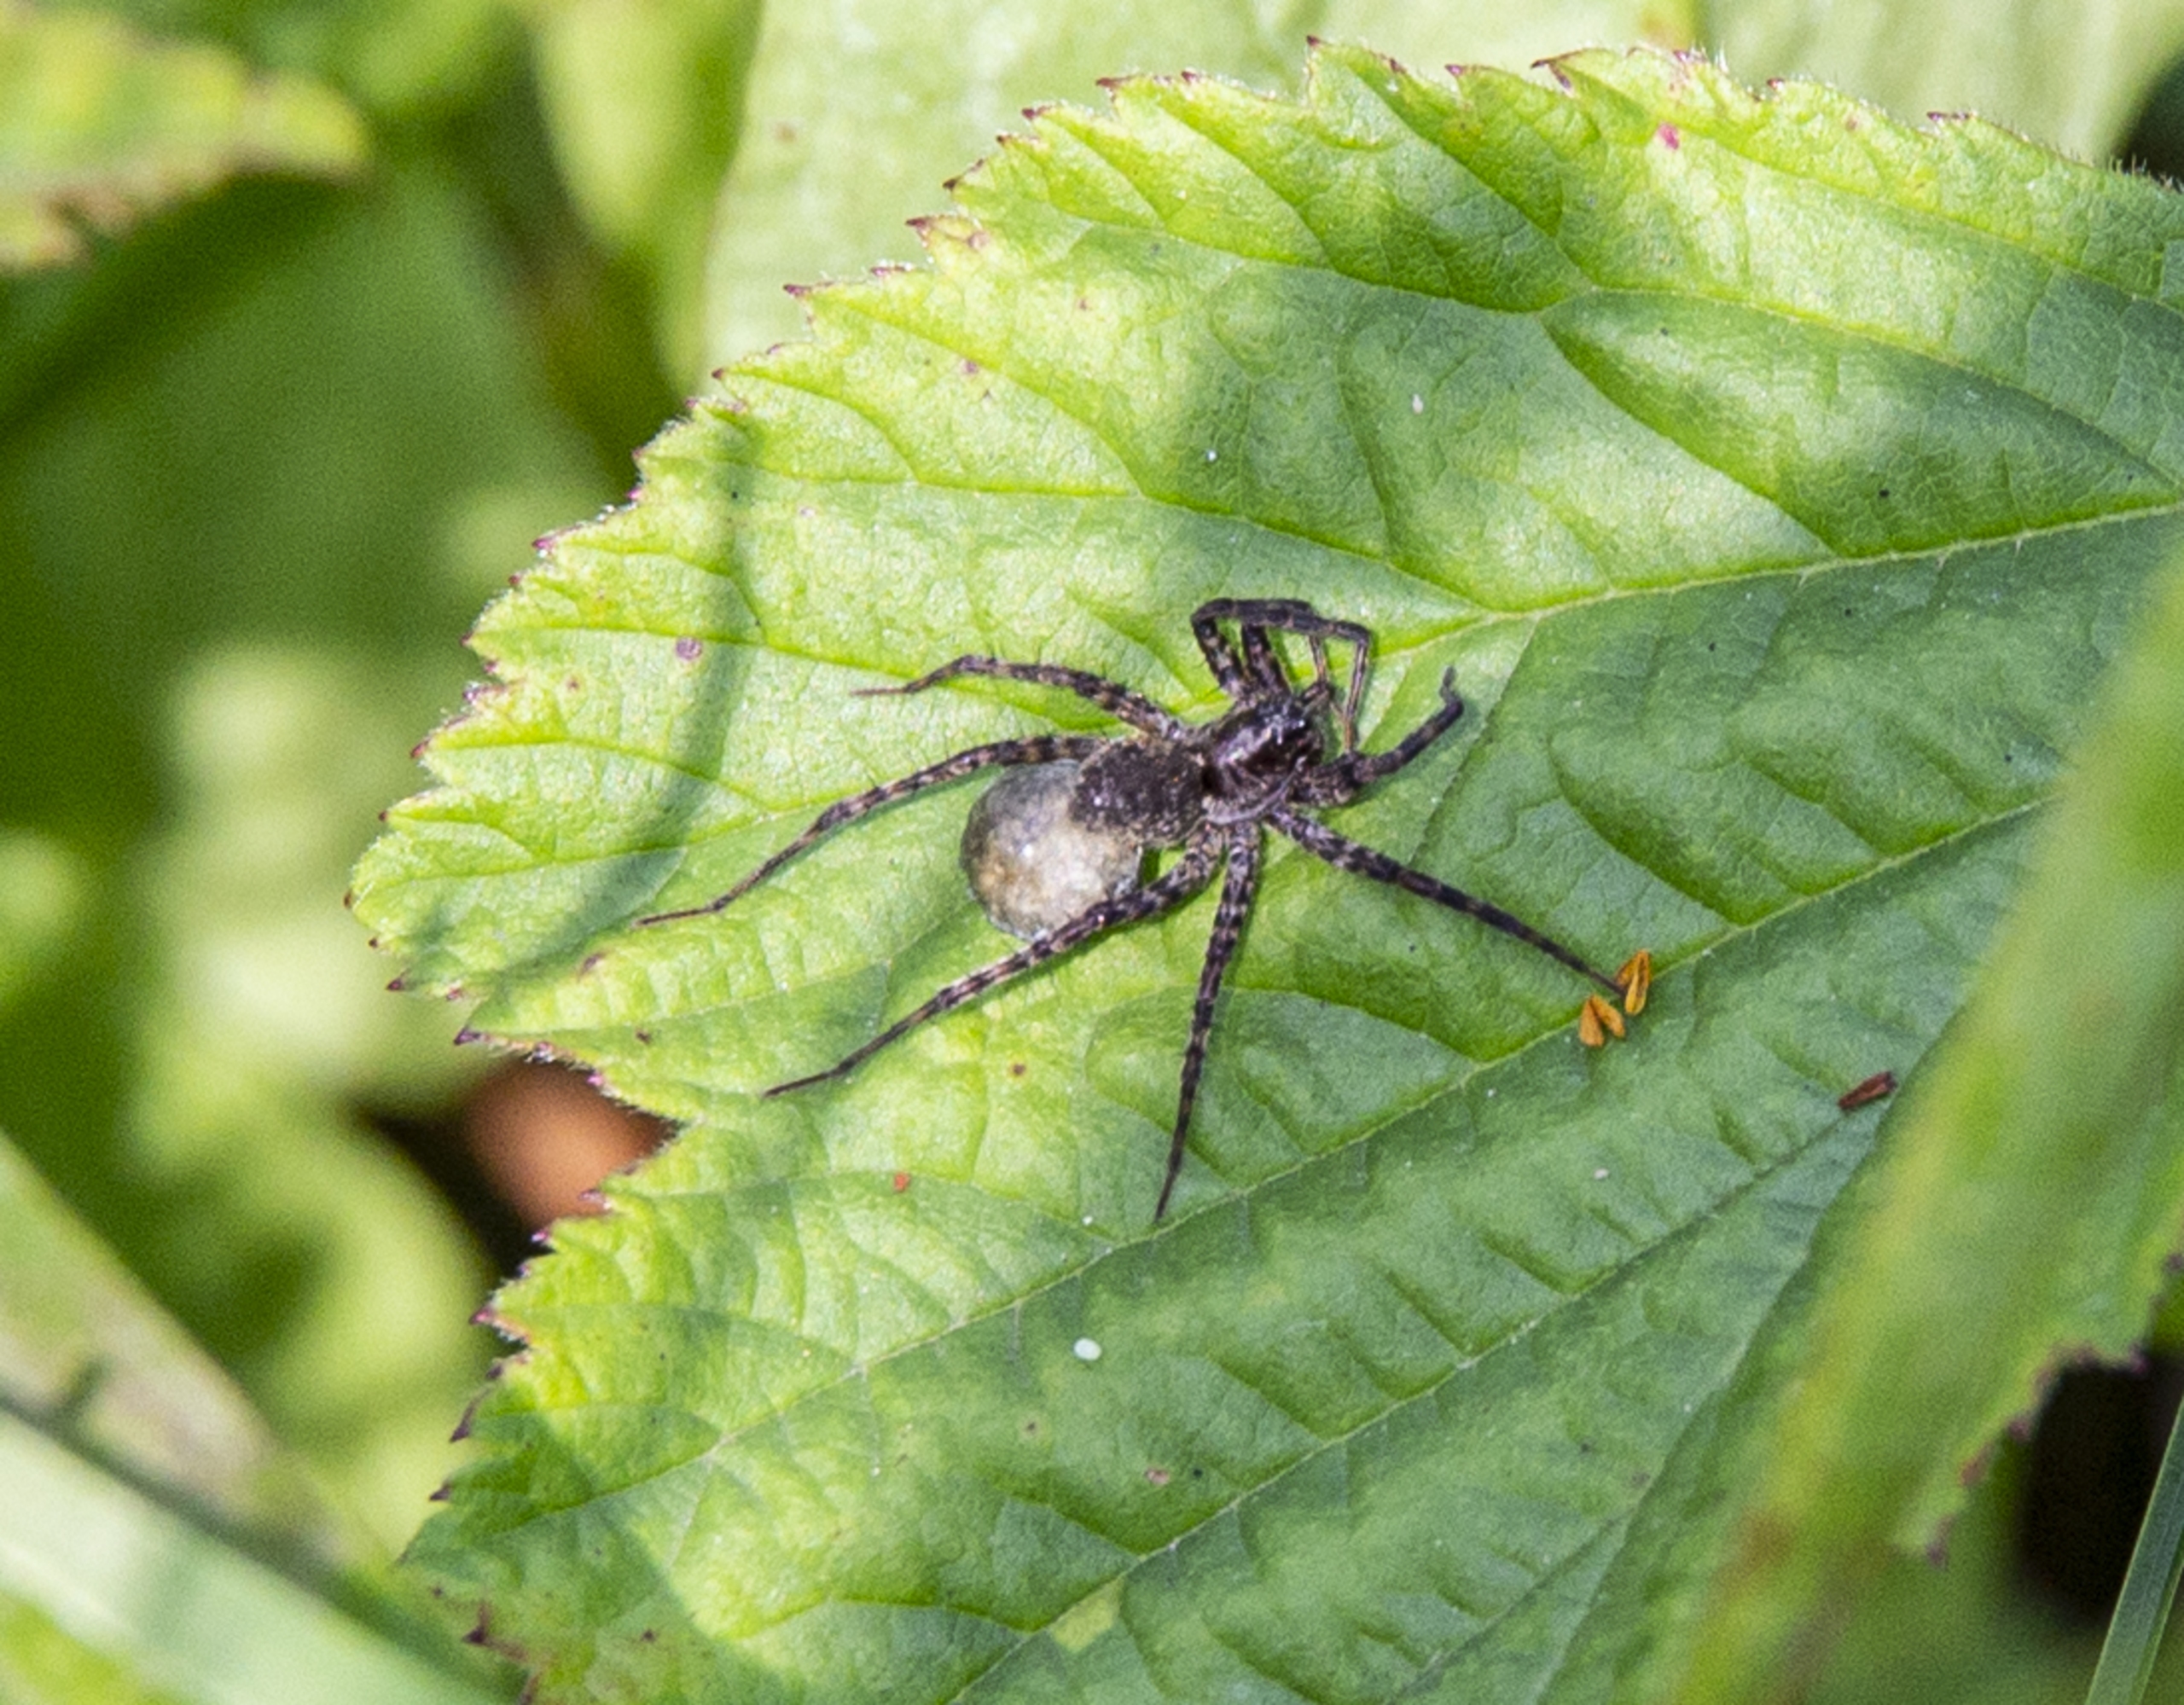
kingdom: Animalia
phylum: Arthropoda
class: Arachnida
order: Araneae
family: Lycosidae
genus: Pardosa
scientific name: Pardosa prativaga
